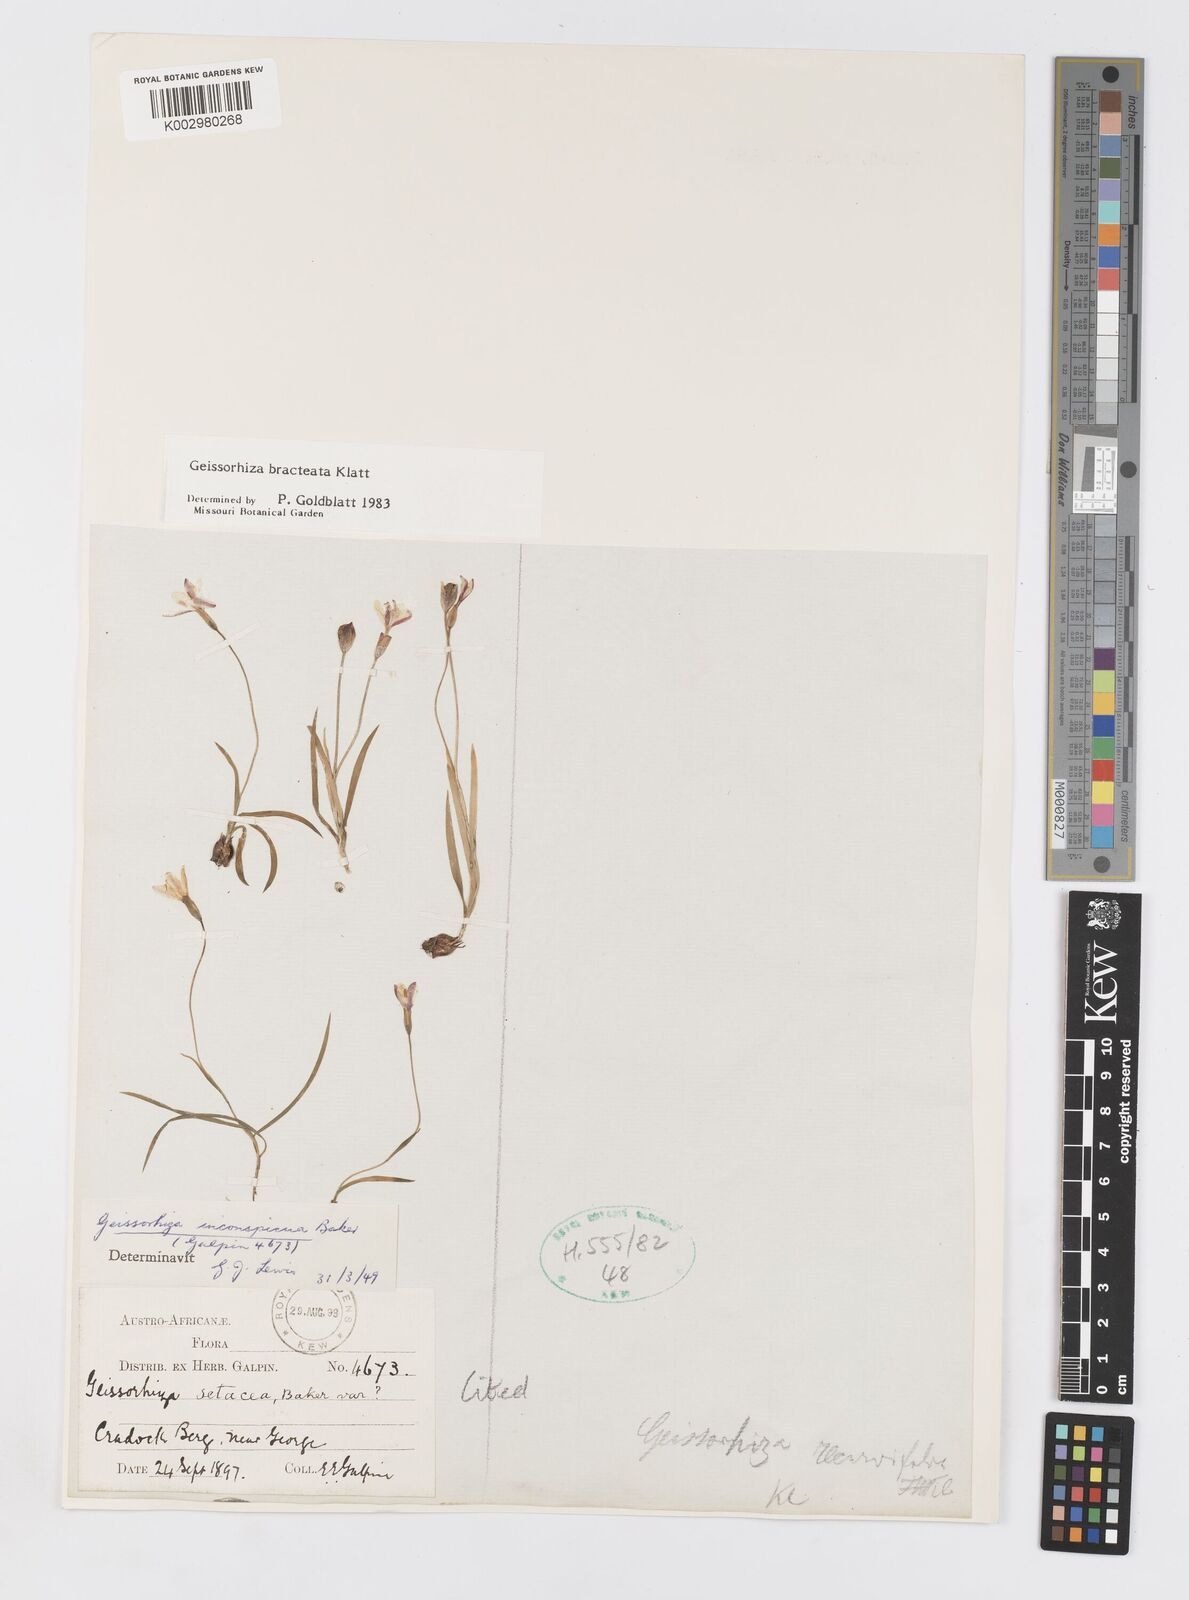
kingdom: Plantae
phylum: Tracheophyta
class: Liliopsida
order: Asparagales
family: Iridaceae
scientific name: Iridaceae
